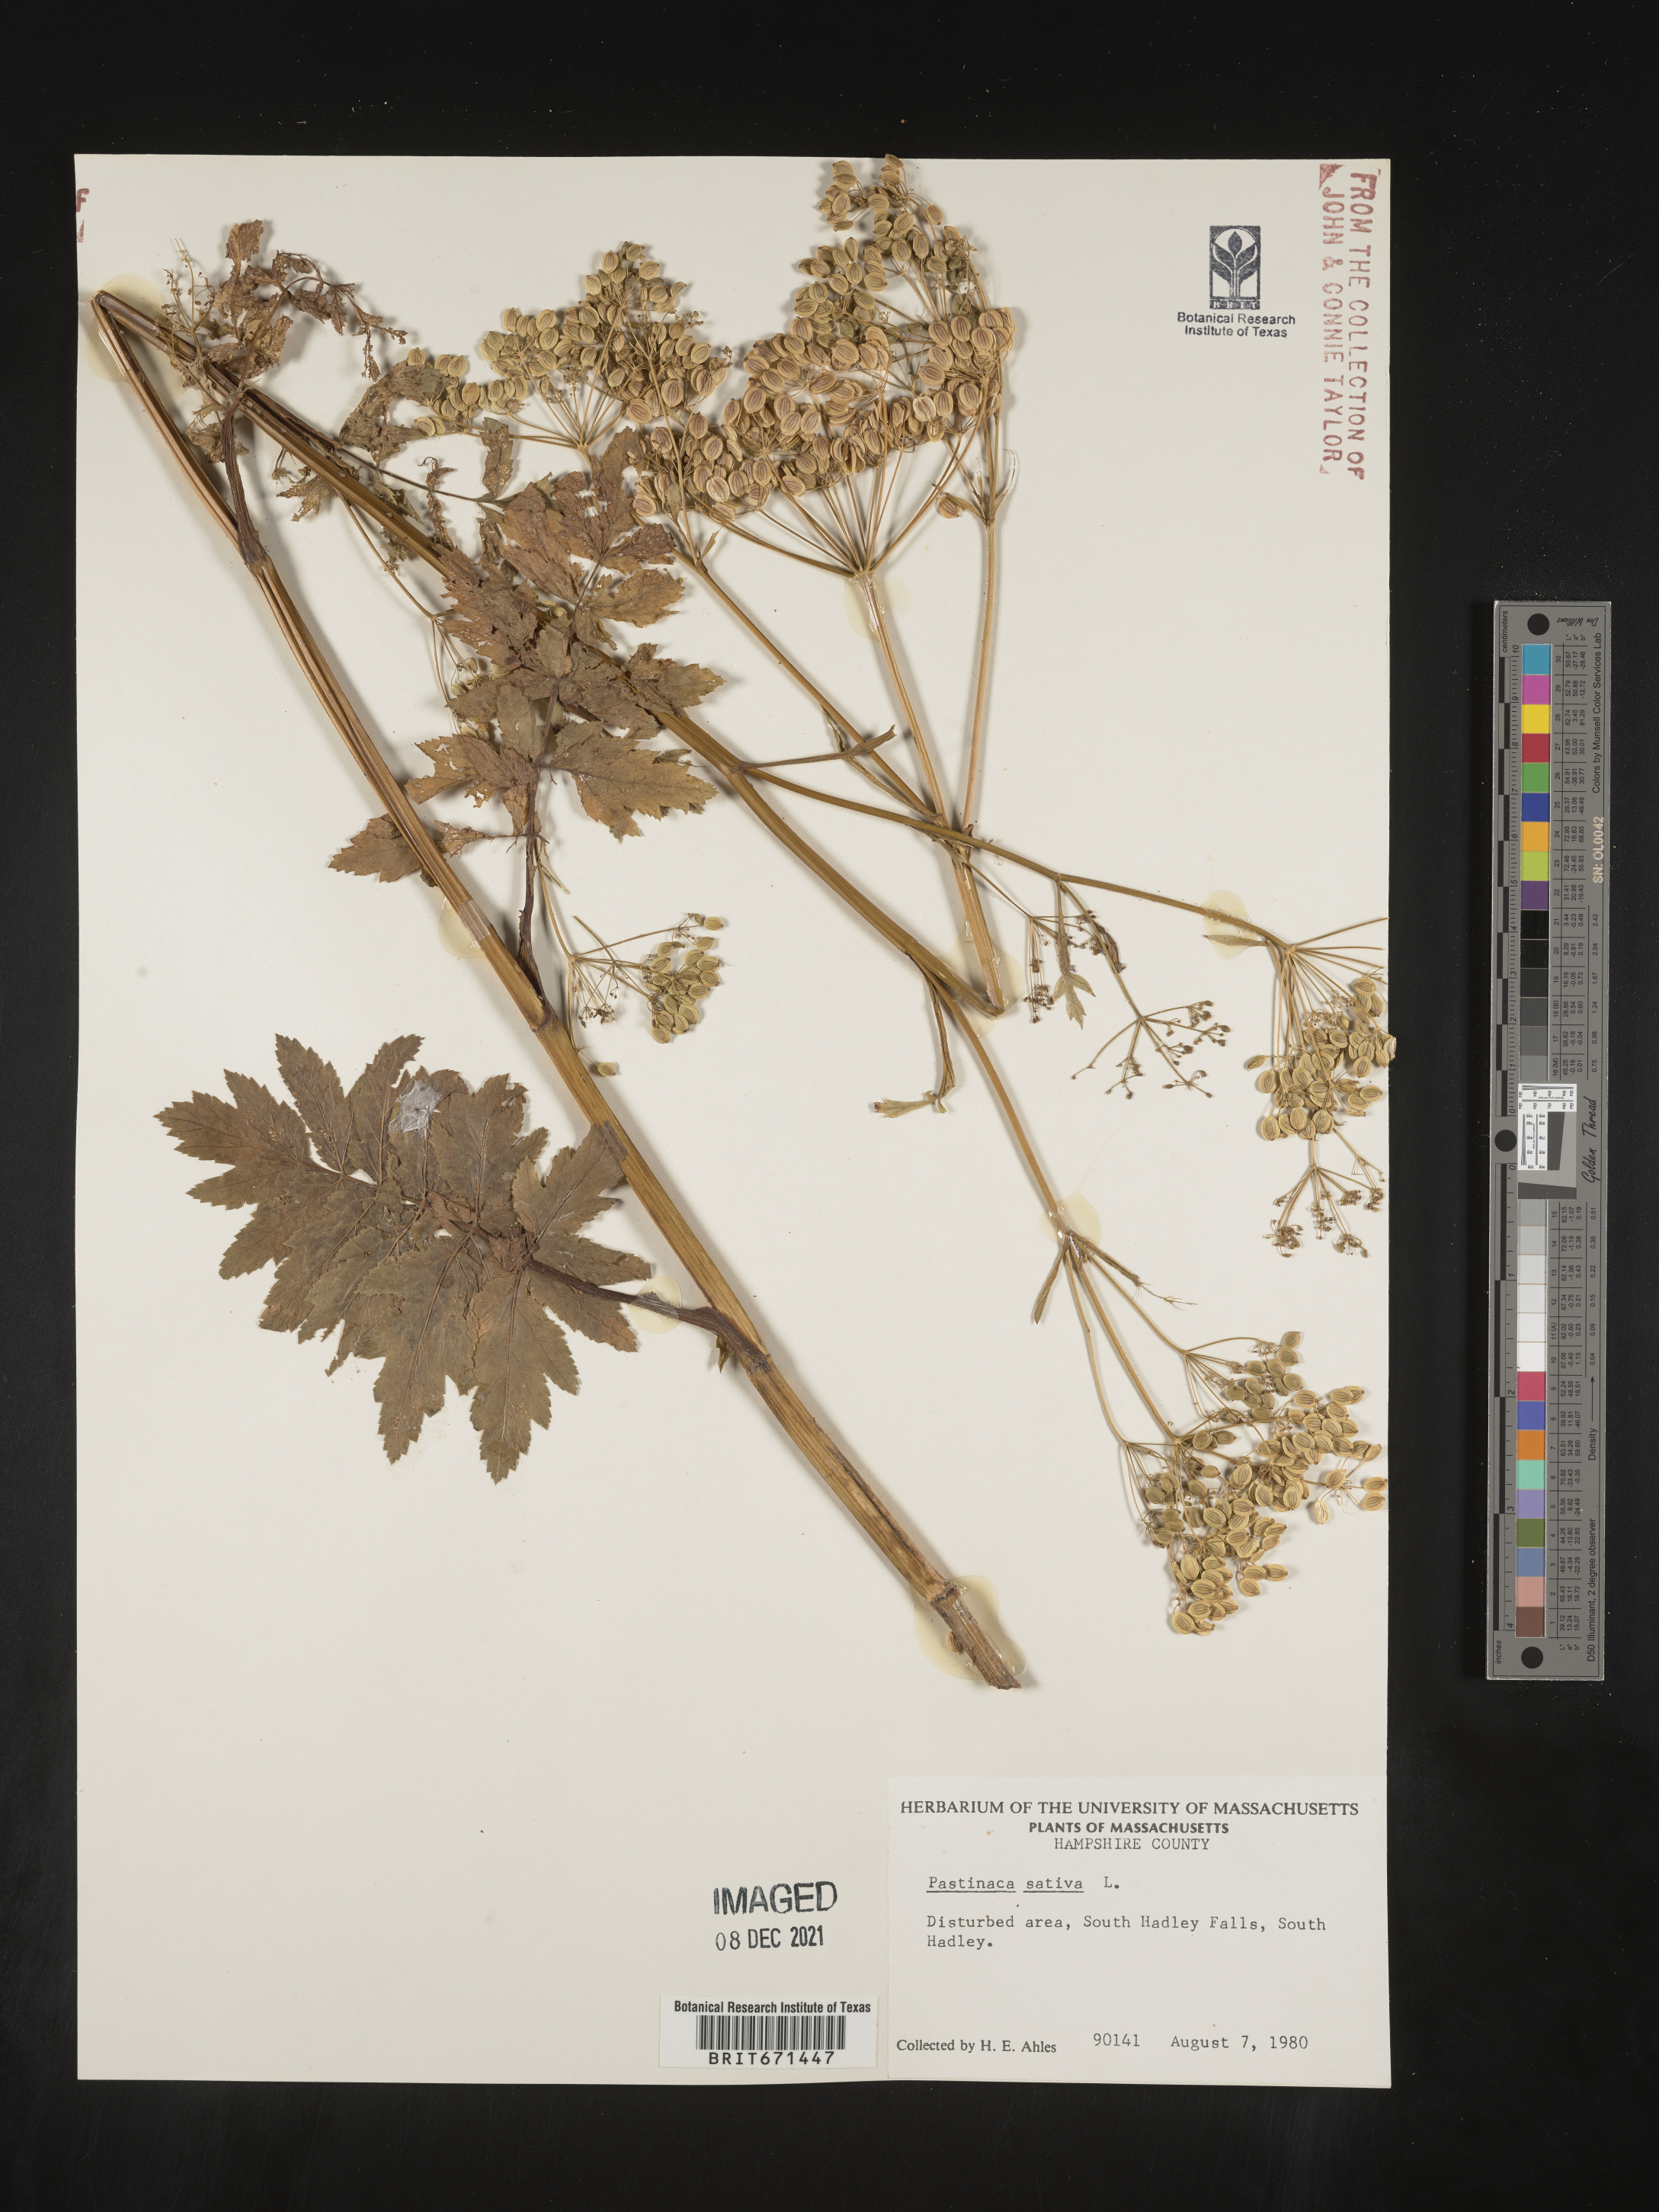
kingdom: Plantae
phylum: Tracheophyta
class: Magnoliopsida
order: Apiales
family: Apiaceae
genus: Pastinaca
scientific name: Pastinaca
